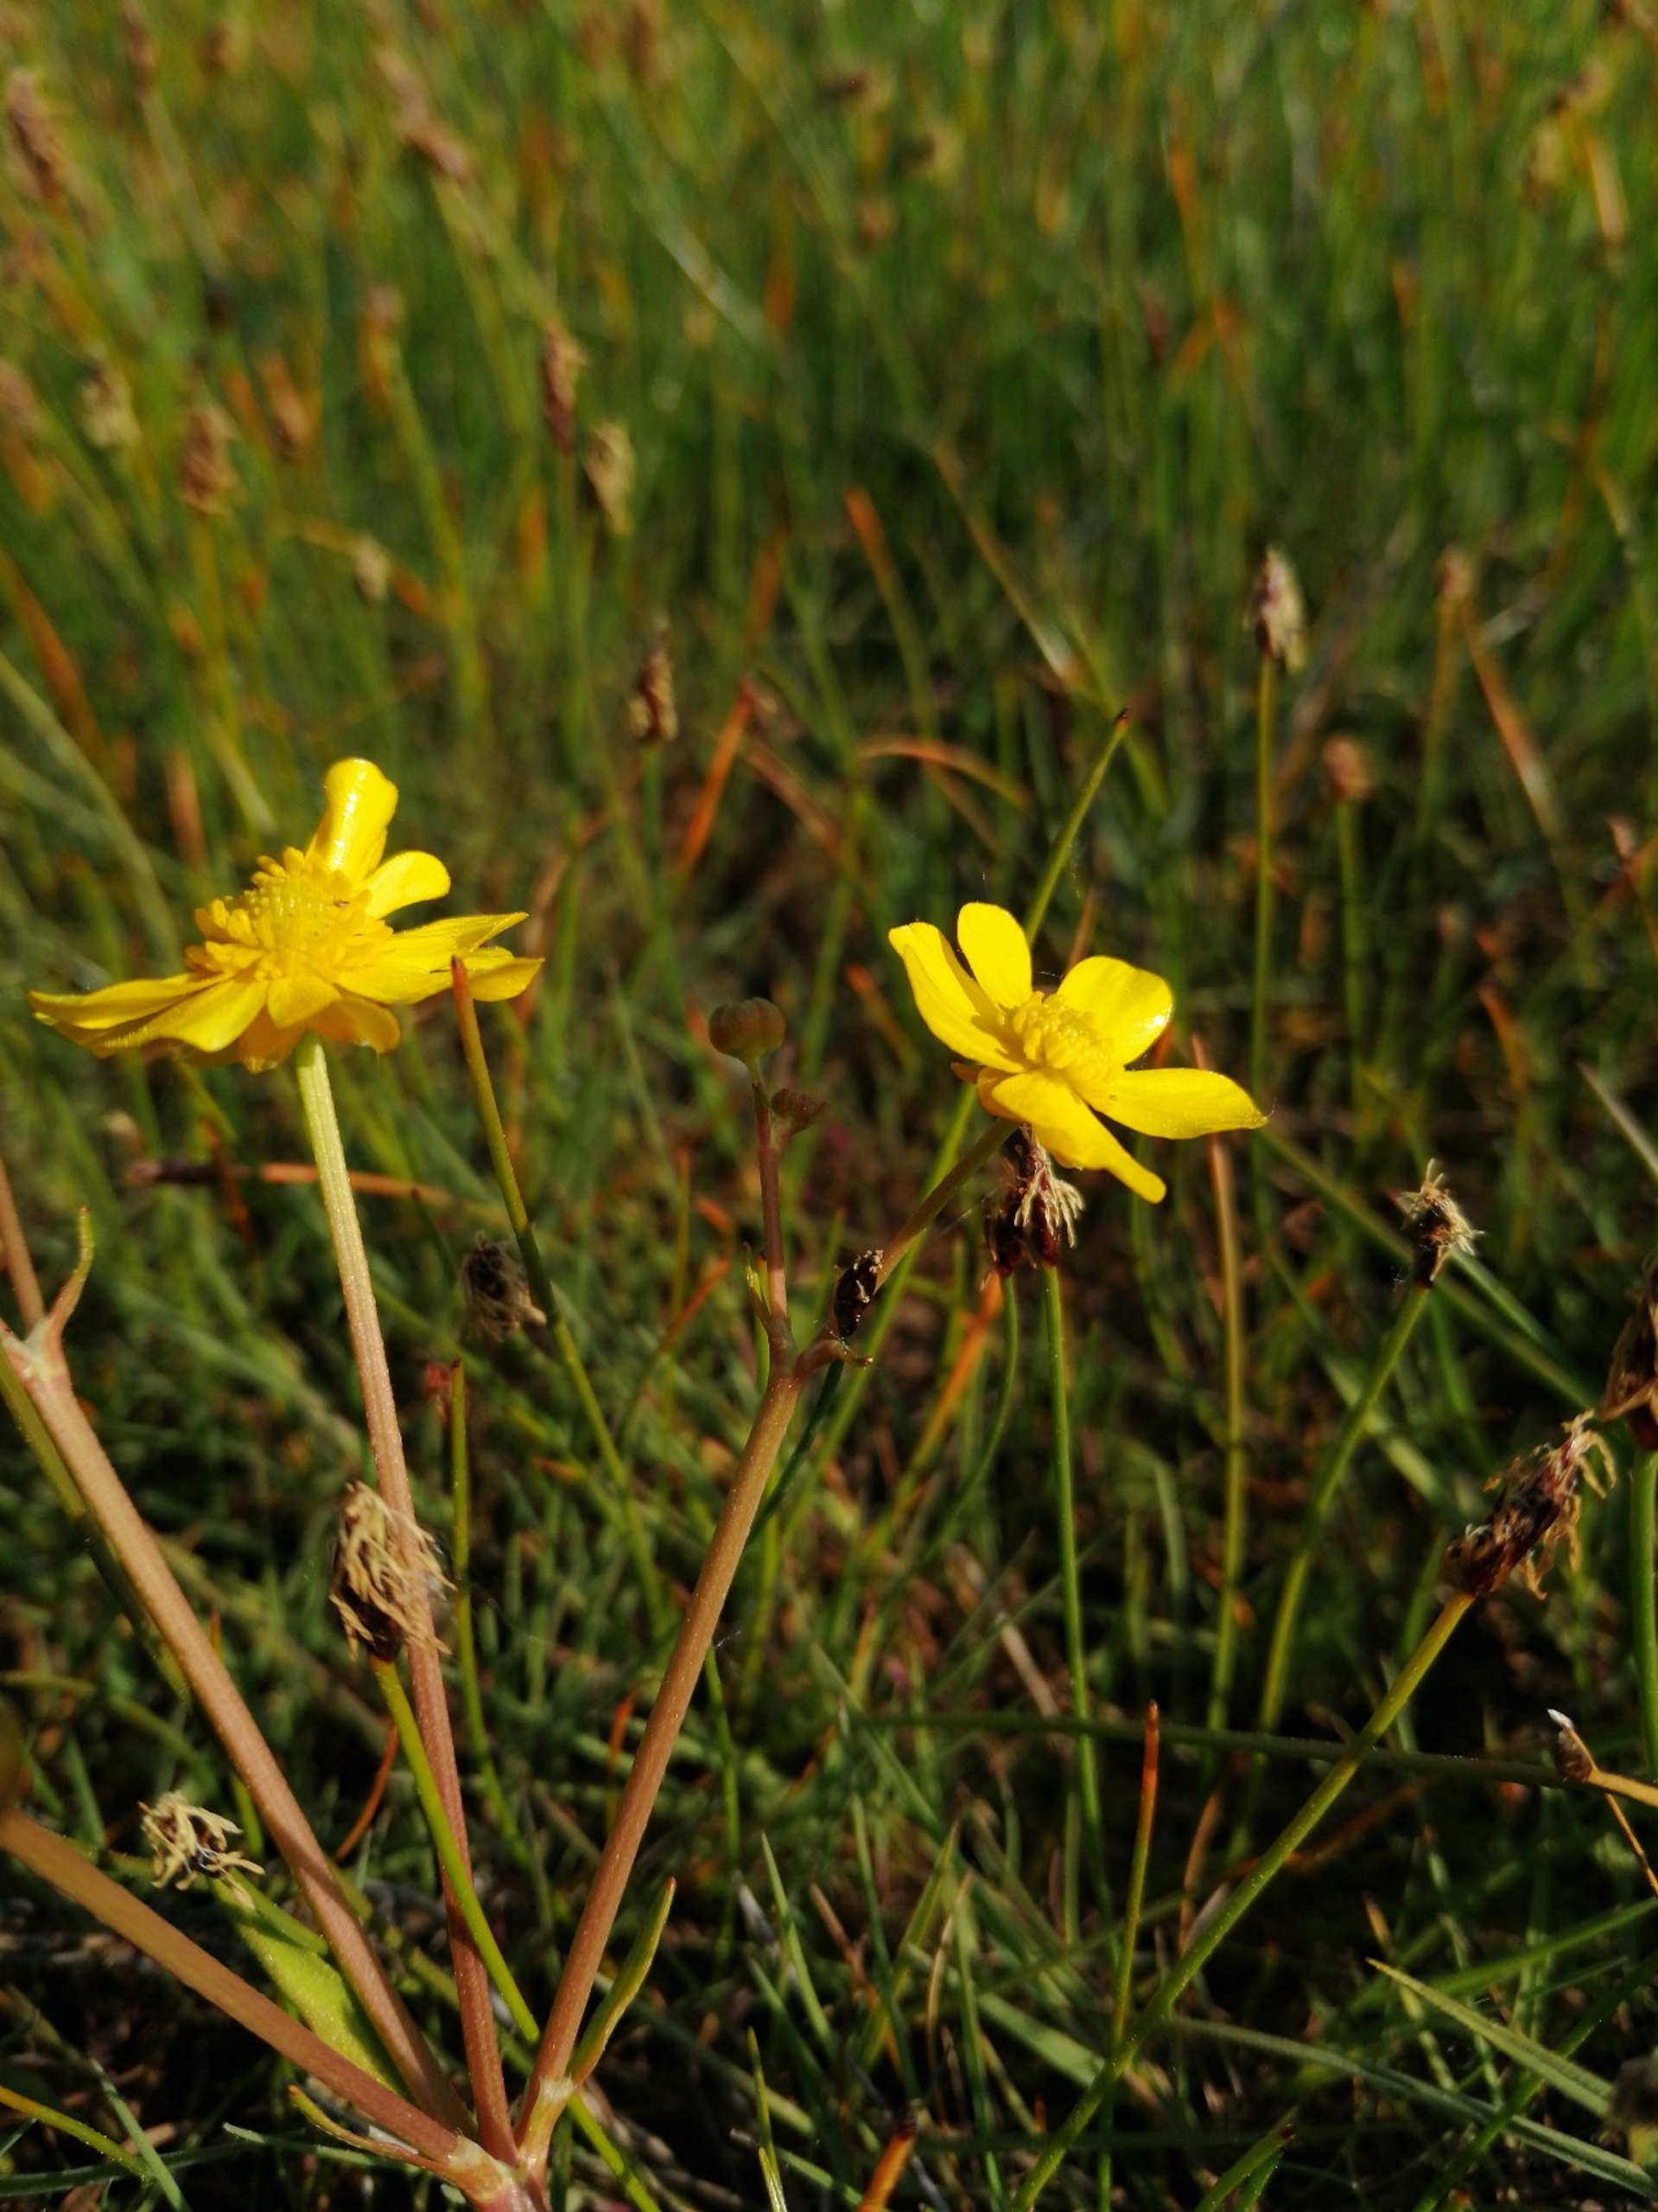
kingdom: Plantae
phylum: Tracheophyta
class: Magnoliopsida
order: Ranunculales
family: Ranunculaceae
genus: Ranunculus
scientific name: Ranunculus flammula
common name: Kær-ranunkel
